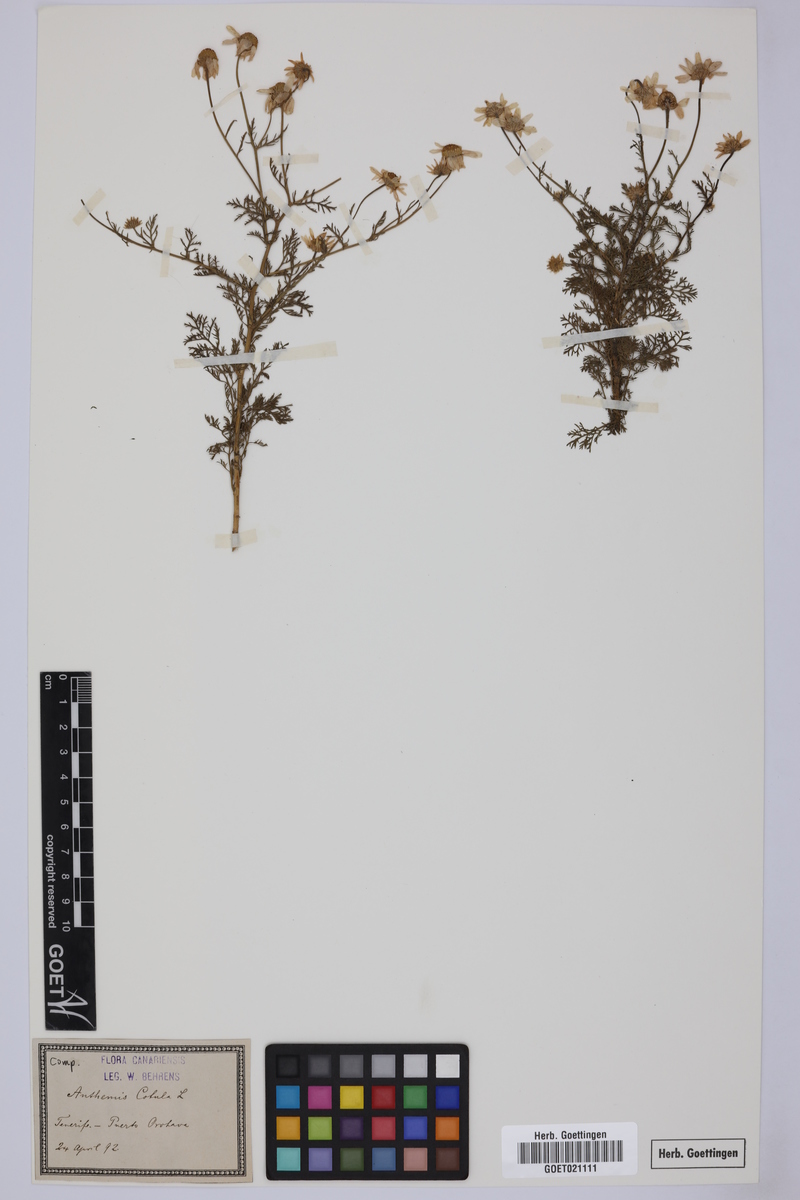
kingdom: Plantae
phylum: Tracheophyta
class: Magnoliopsida
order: Asterales
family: Asteraceae
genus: Anthemis
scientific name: Anthemis cotula
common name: Stinking chamomile
